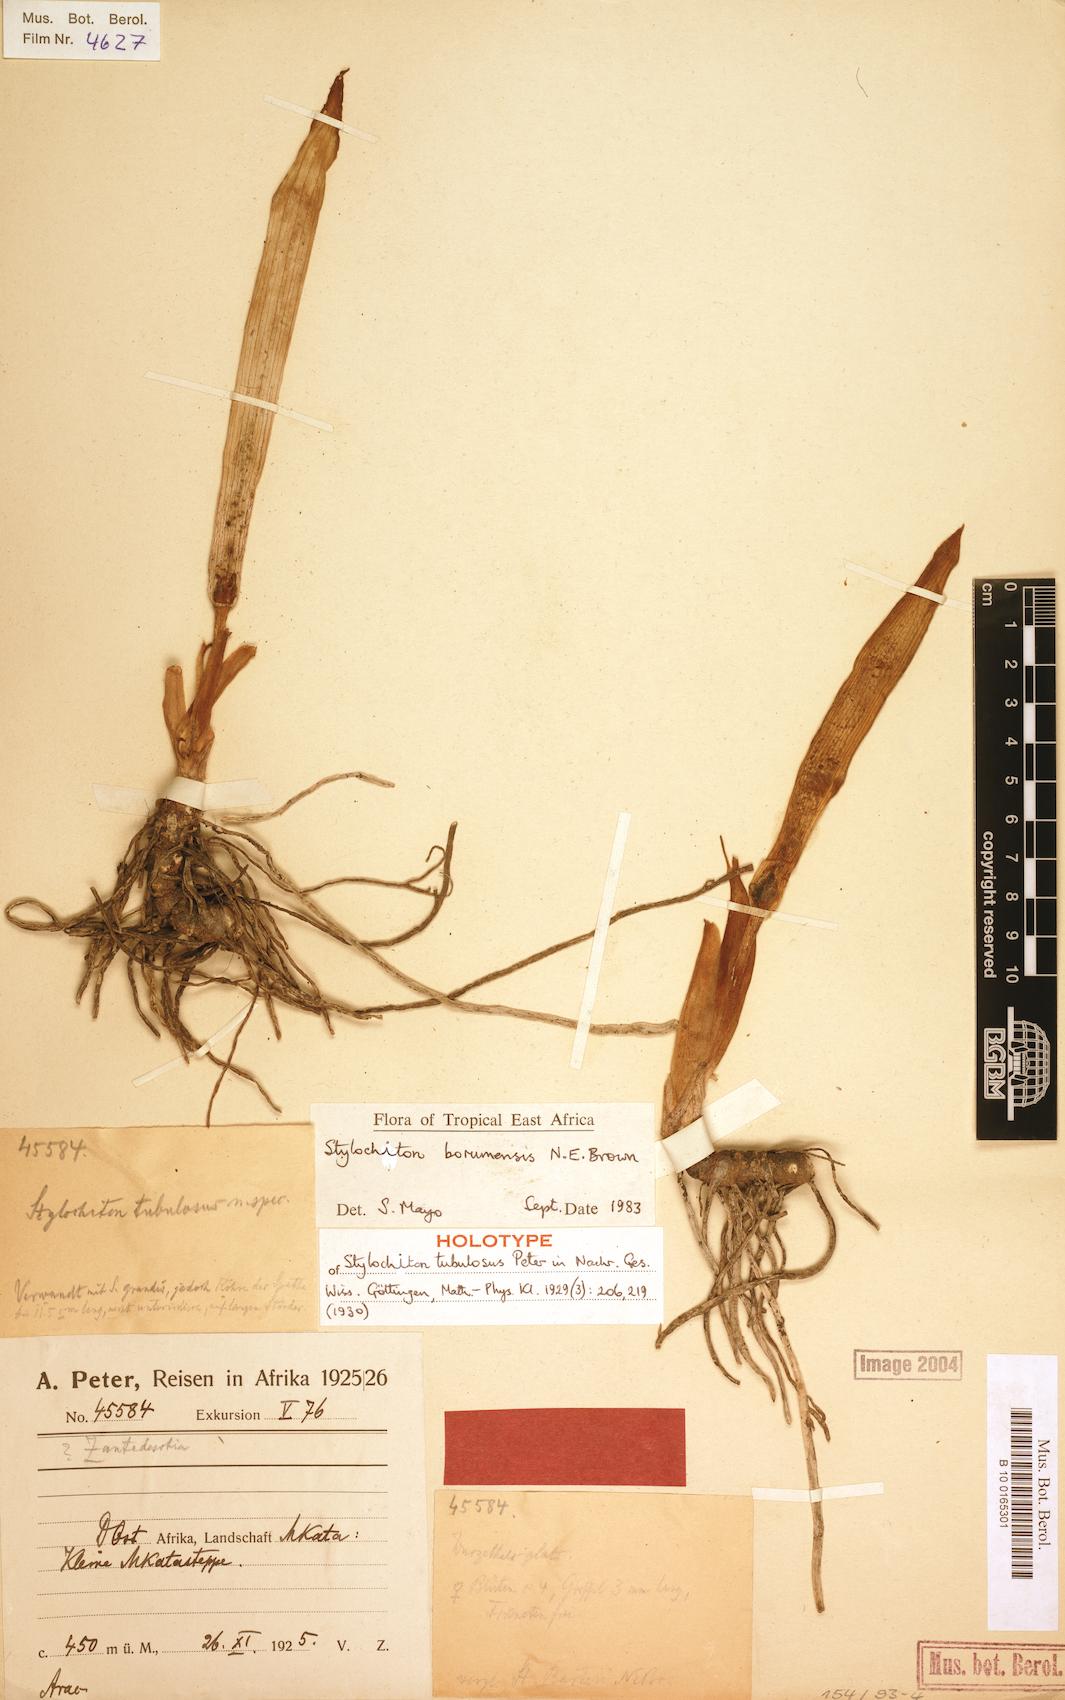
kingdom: Plantae
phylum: Tracheophyta
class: Liliopsida
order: Alismatales
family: Araceae
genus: Stylochiton
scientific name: Stylochiton borumensis
